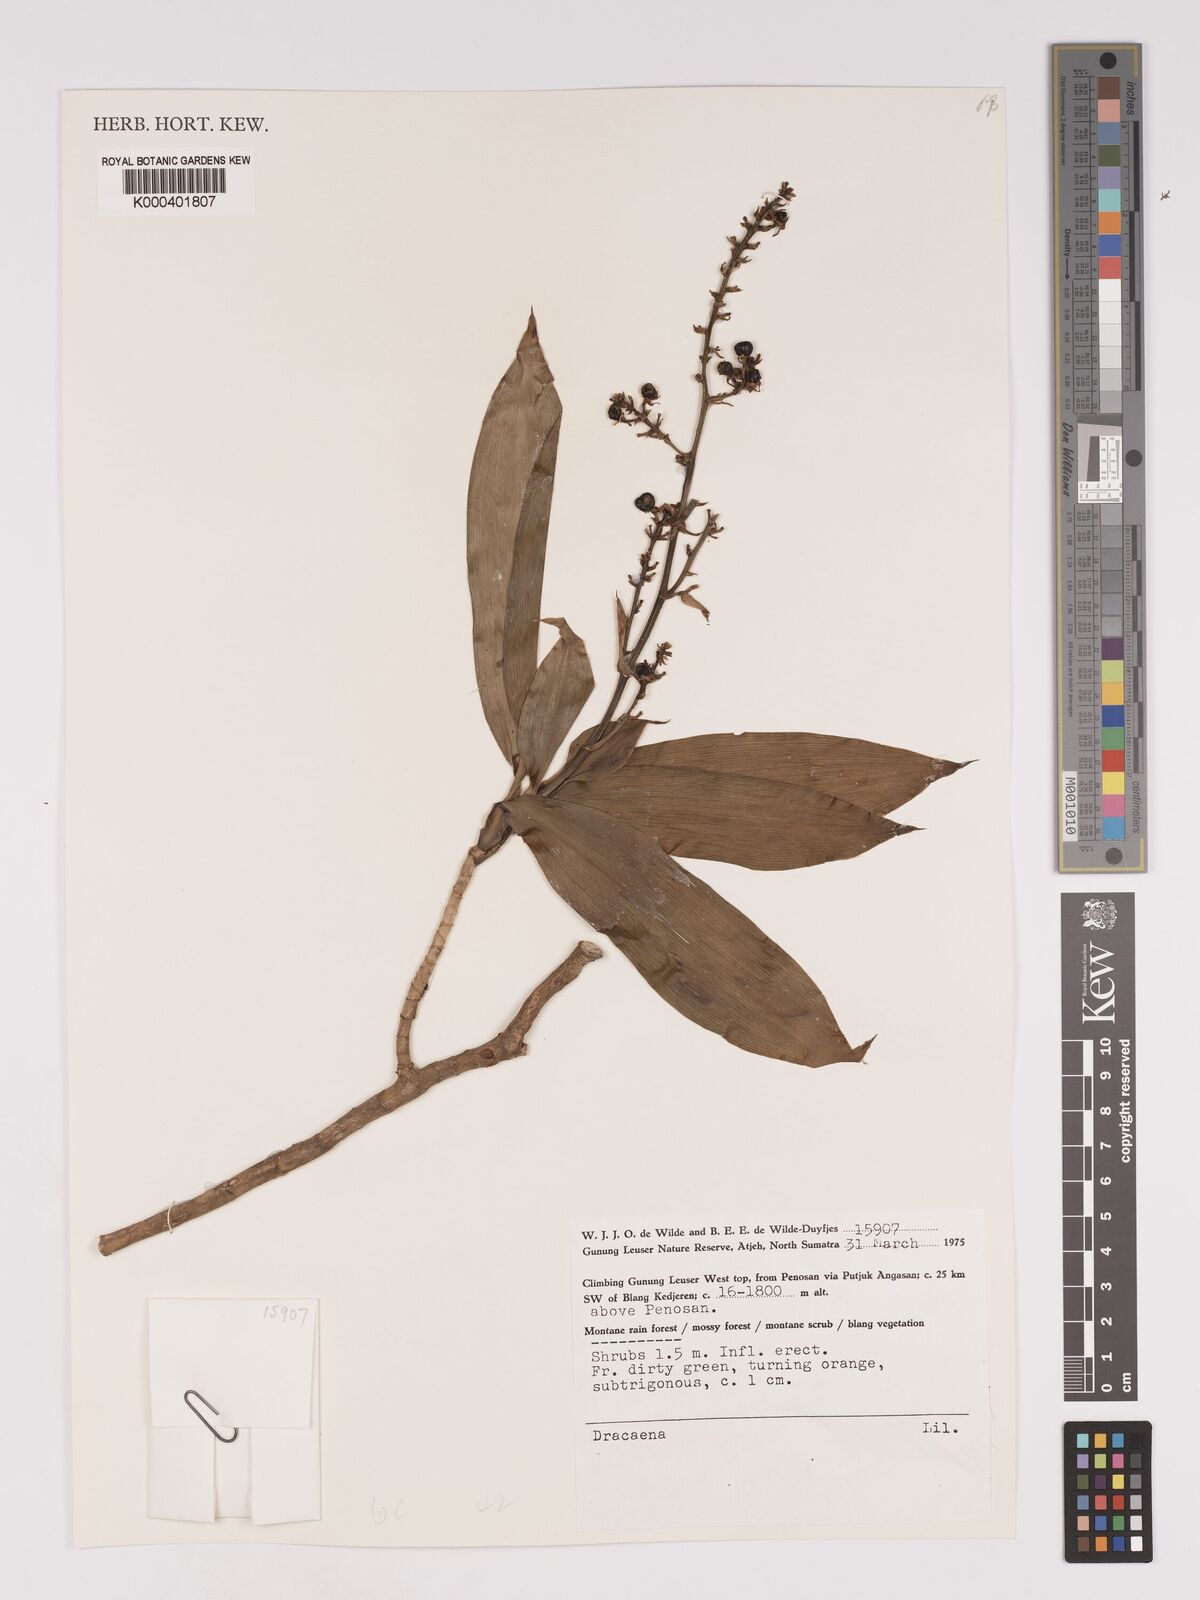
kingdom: Plantae
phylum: Tracheophyta
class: Liliopsida
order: Asparagales
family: Asparagaceae
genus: Dracaena
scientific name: Dracaena
